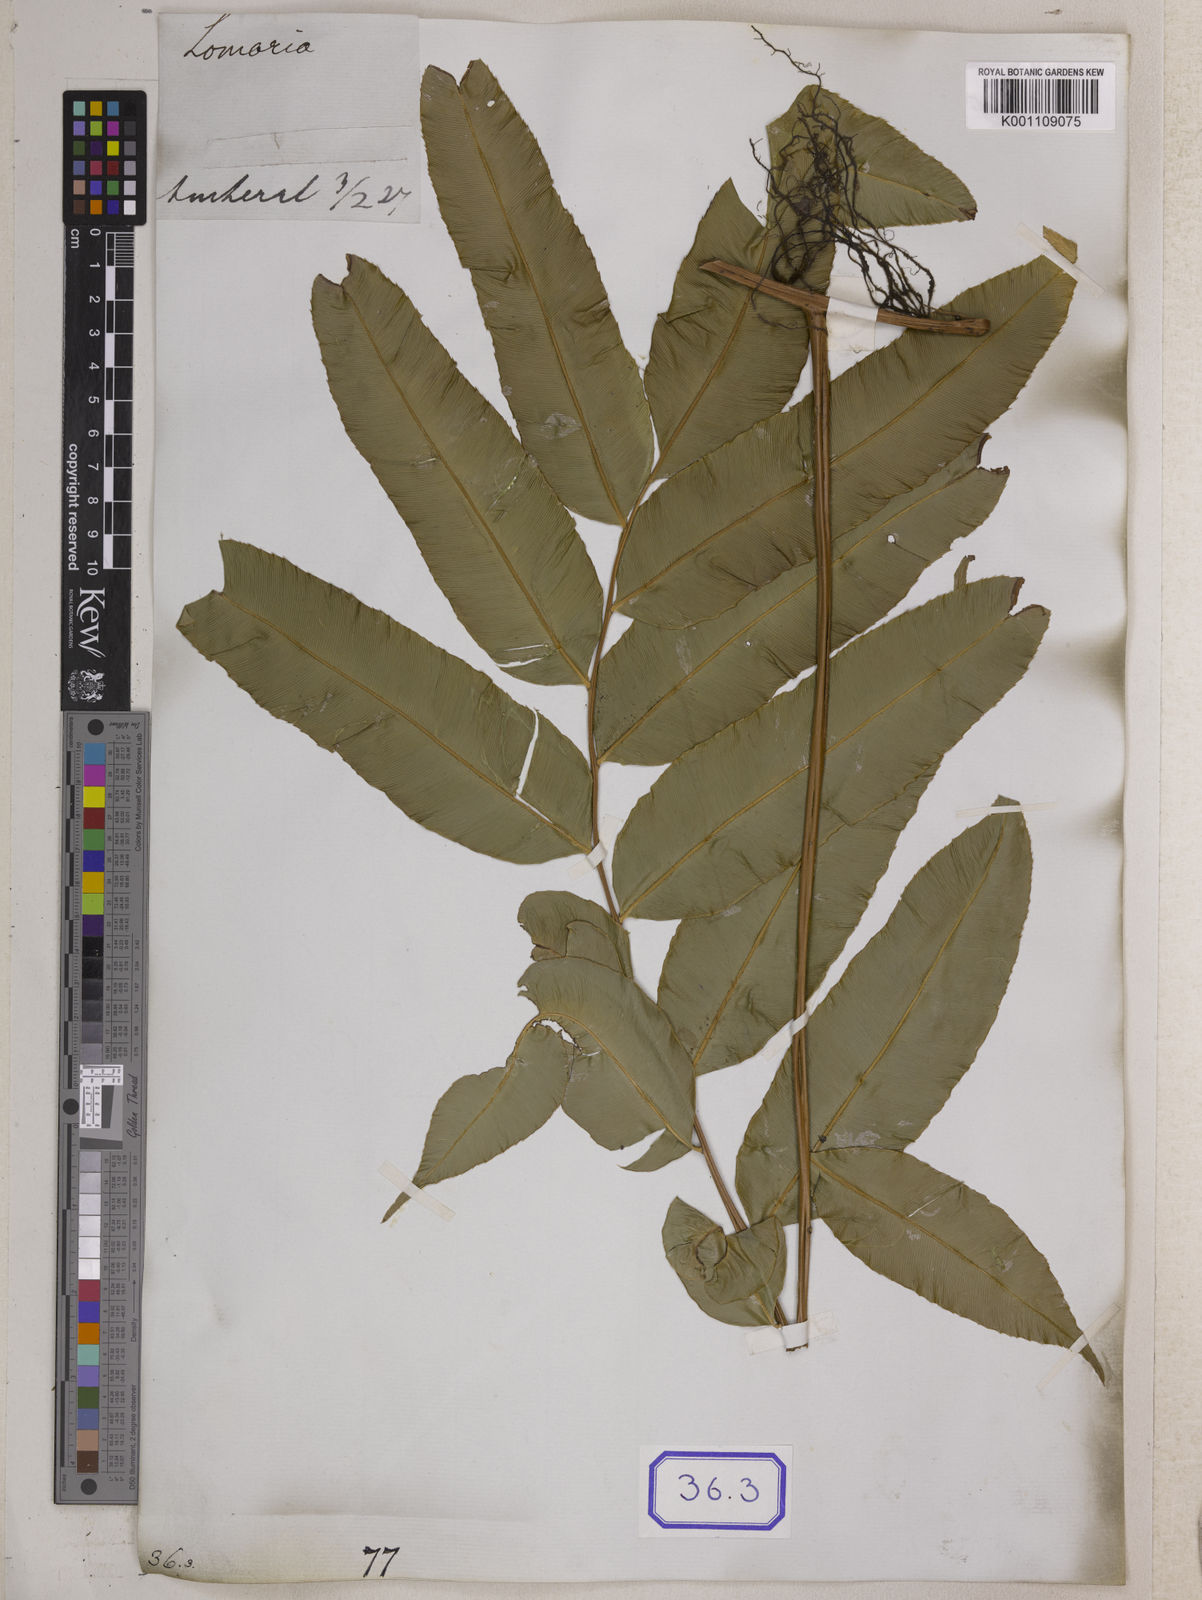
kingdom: Plantae
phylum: Tracheophyta
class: Polypodiopsida
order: Polypodiales
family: Blechnaceae
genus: Stenochlaena
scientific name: Stenochlaena palustris
